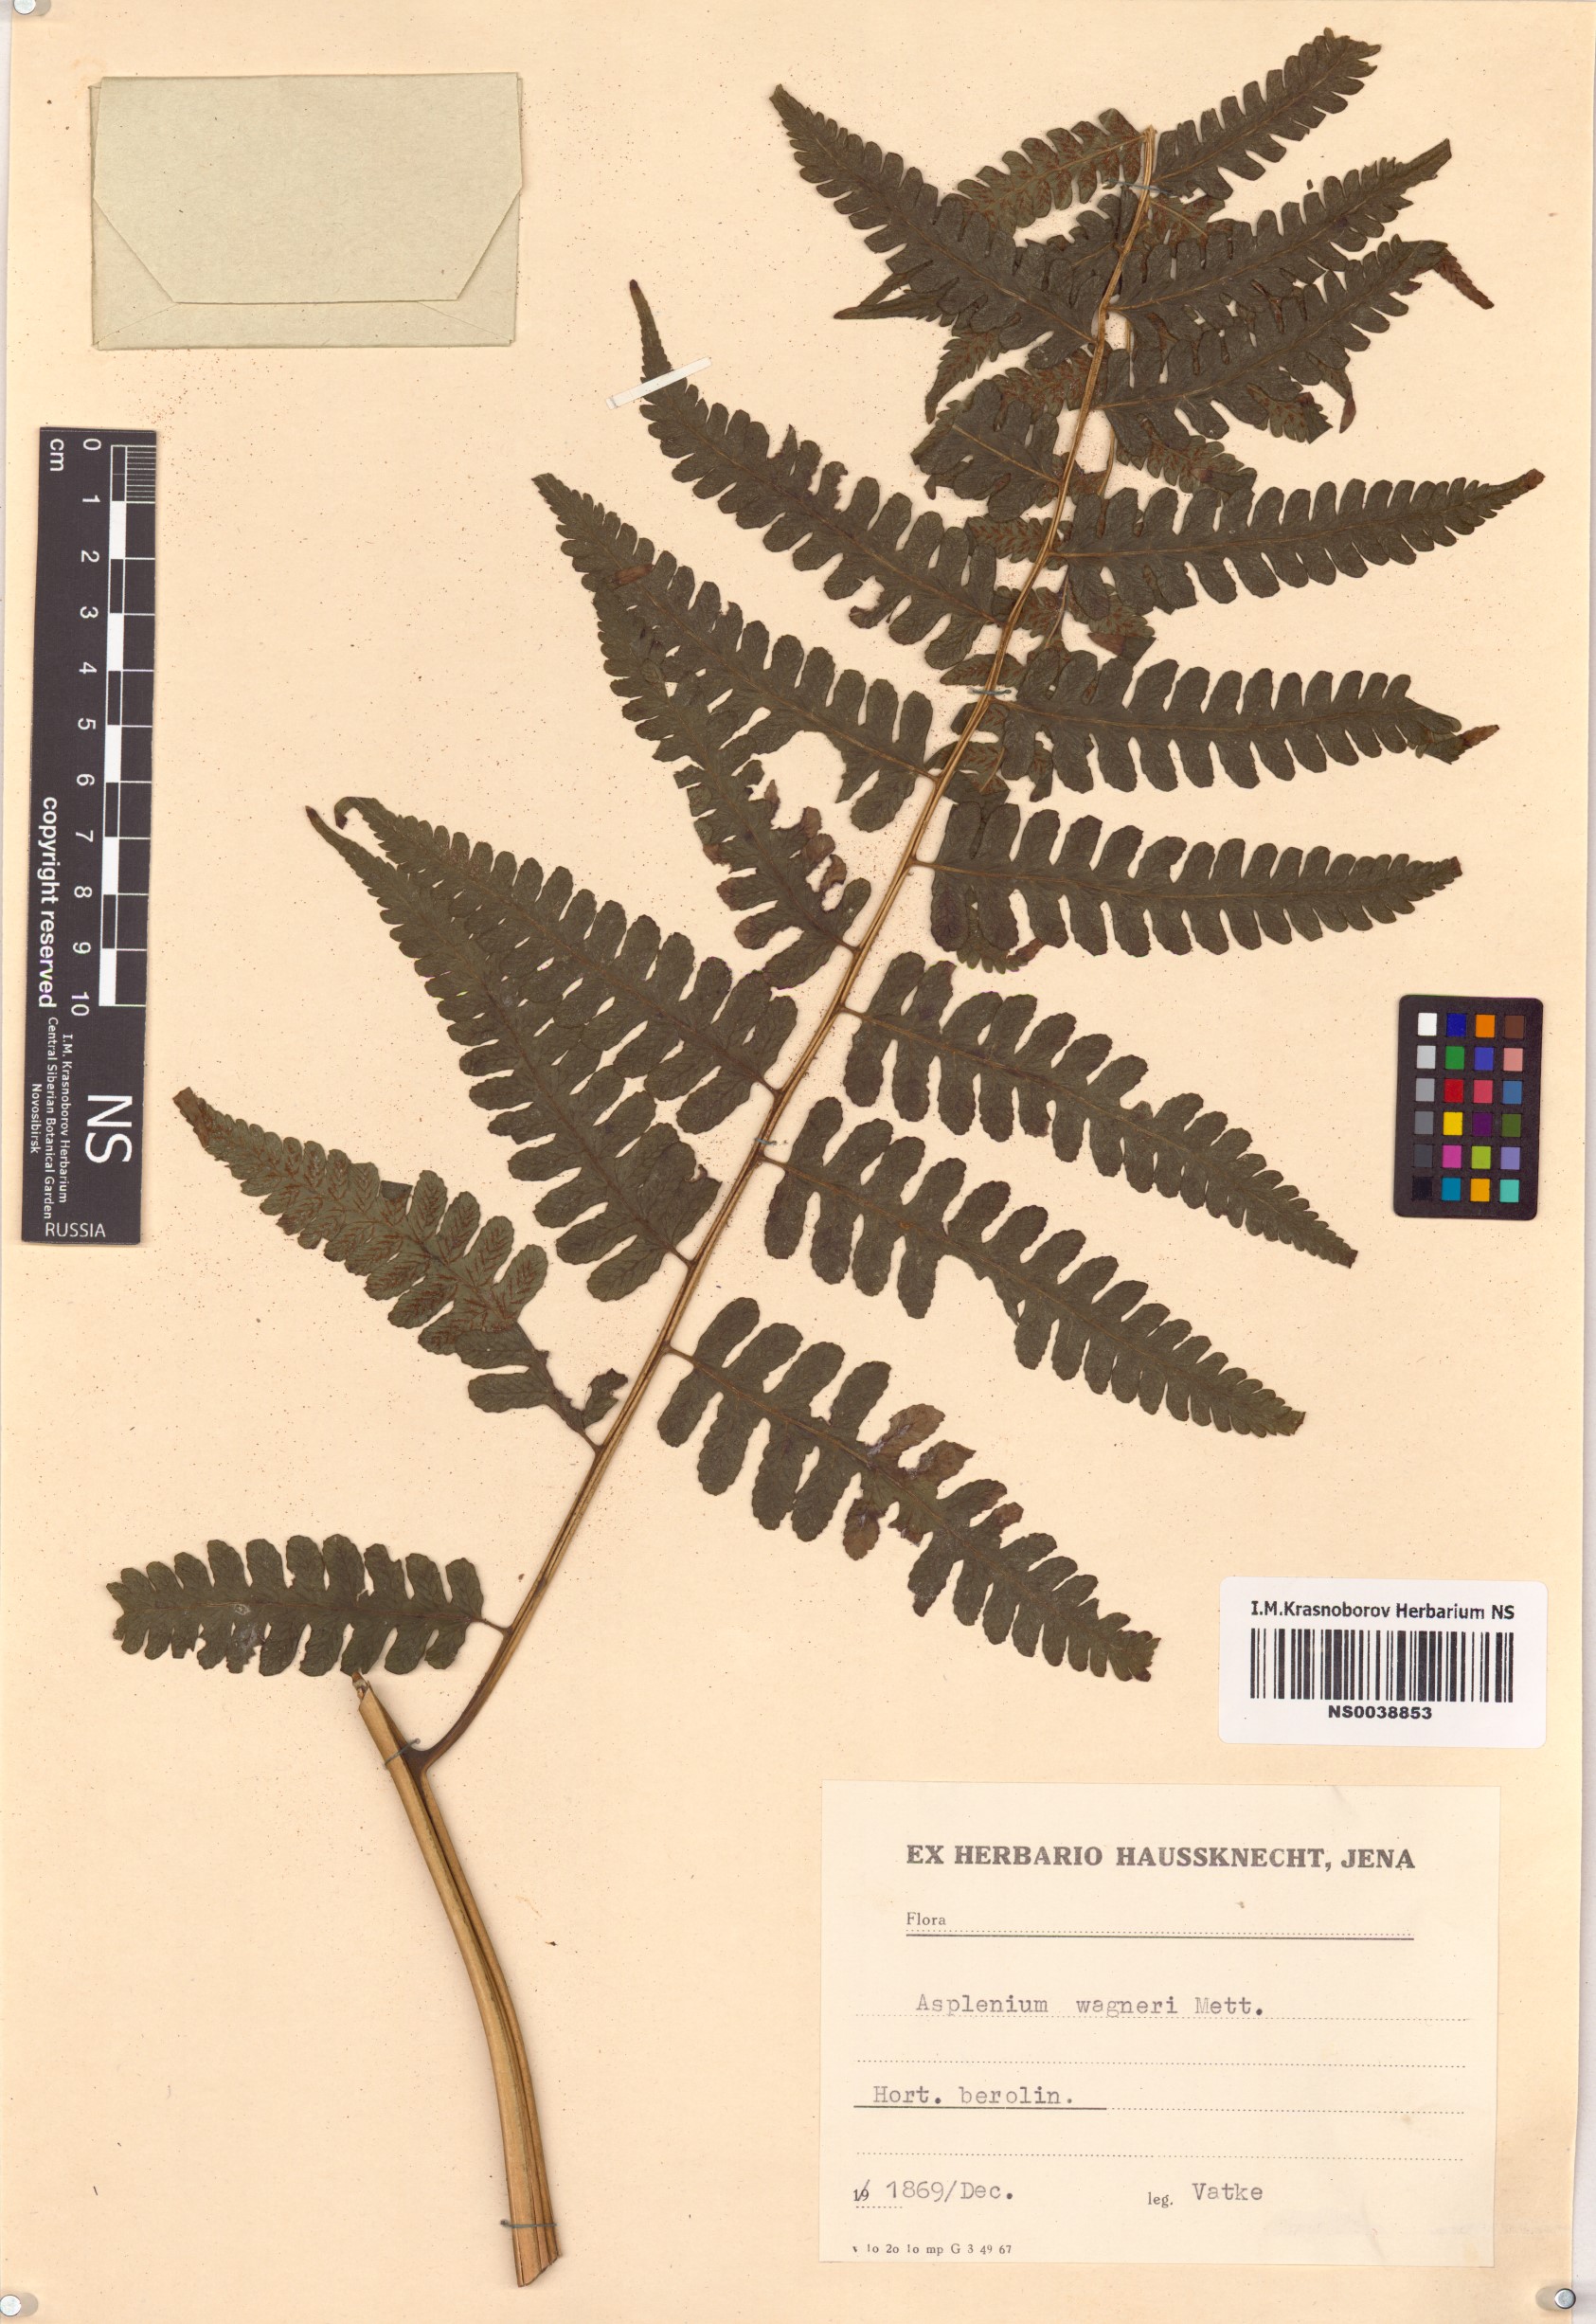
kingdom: Plantae
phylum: Tracheophyta
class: Polypodiopsida
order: Polypodiales
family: Aspleniaceae
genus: Asplenium
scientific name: Asplenium monanthes
